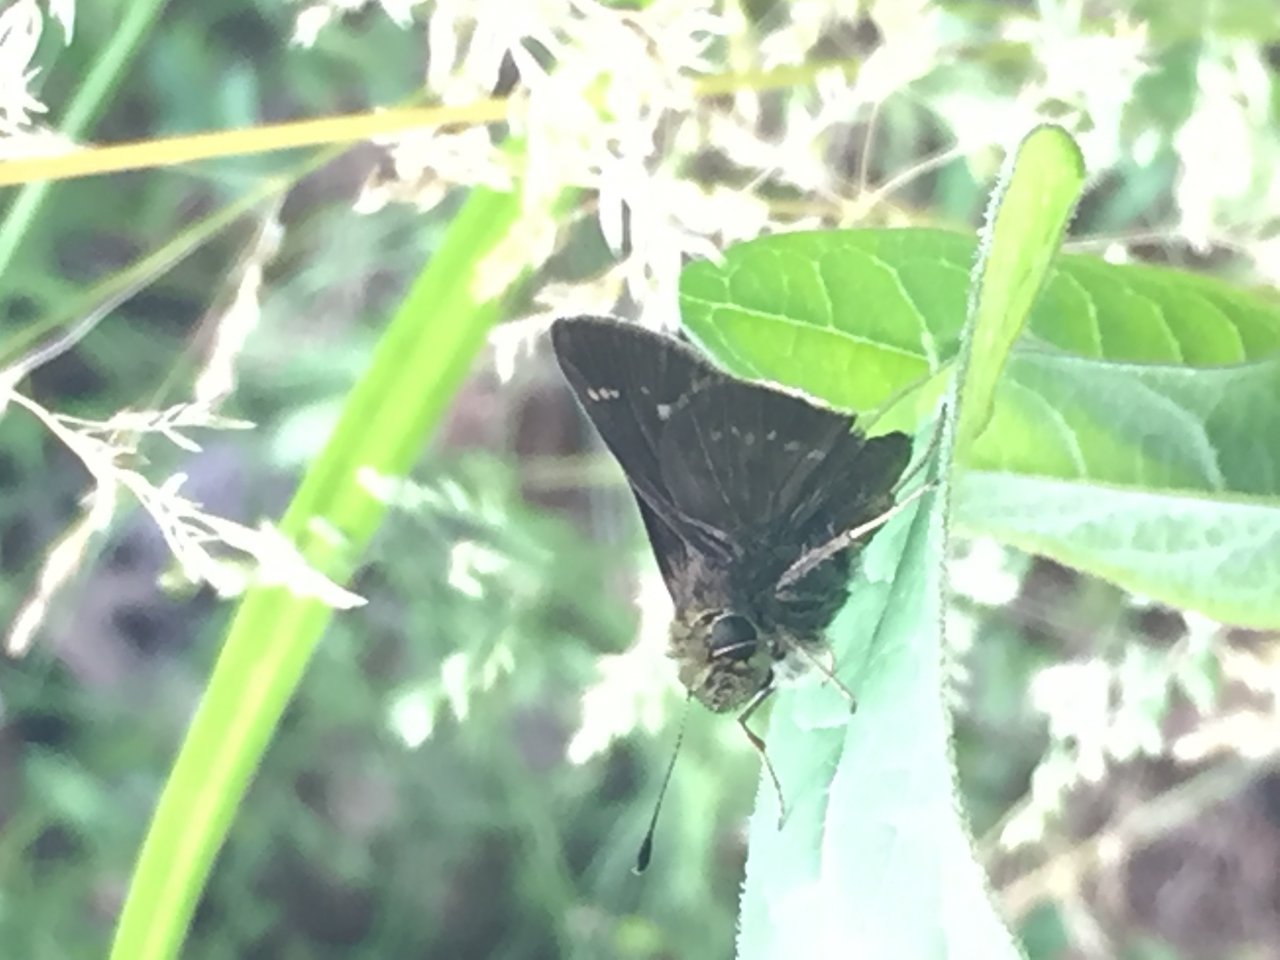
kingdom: Animalia
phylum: Arthropoda
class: Insecta
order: Lepidoptera
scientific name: Lepidoptera
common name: Butterflies
